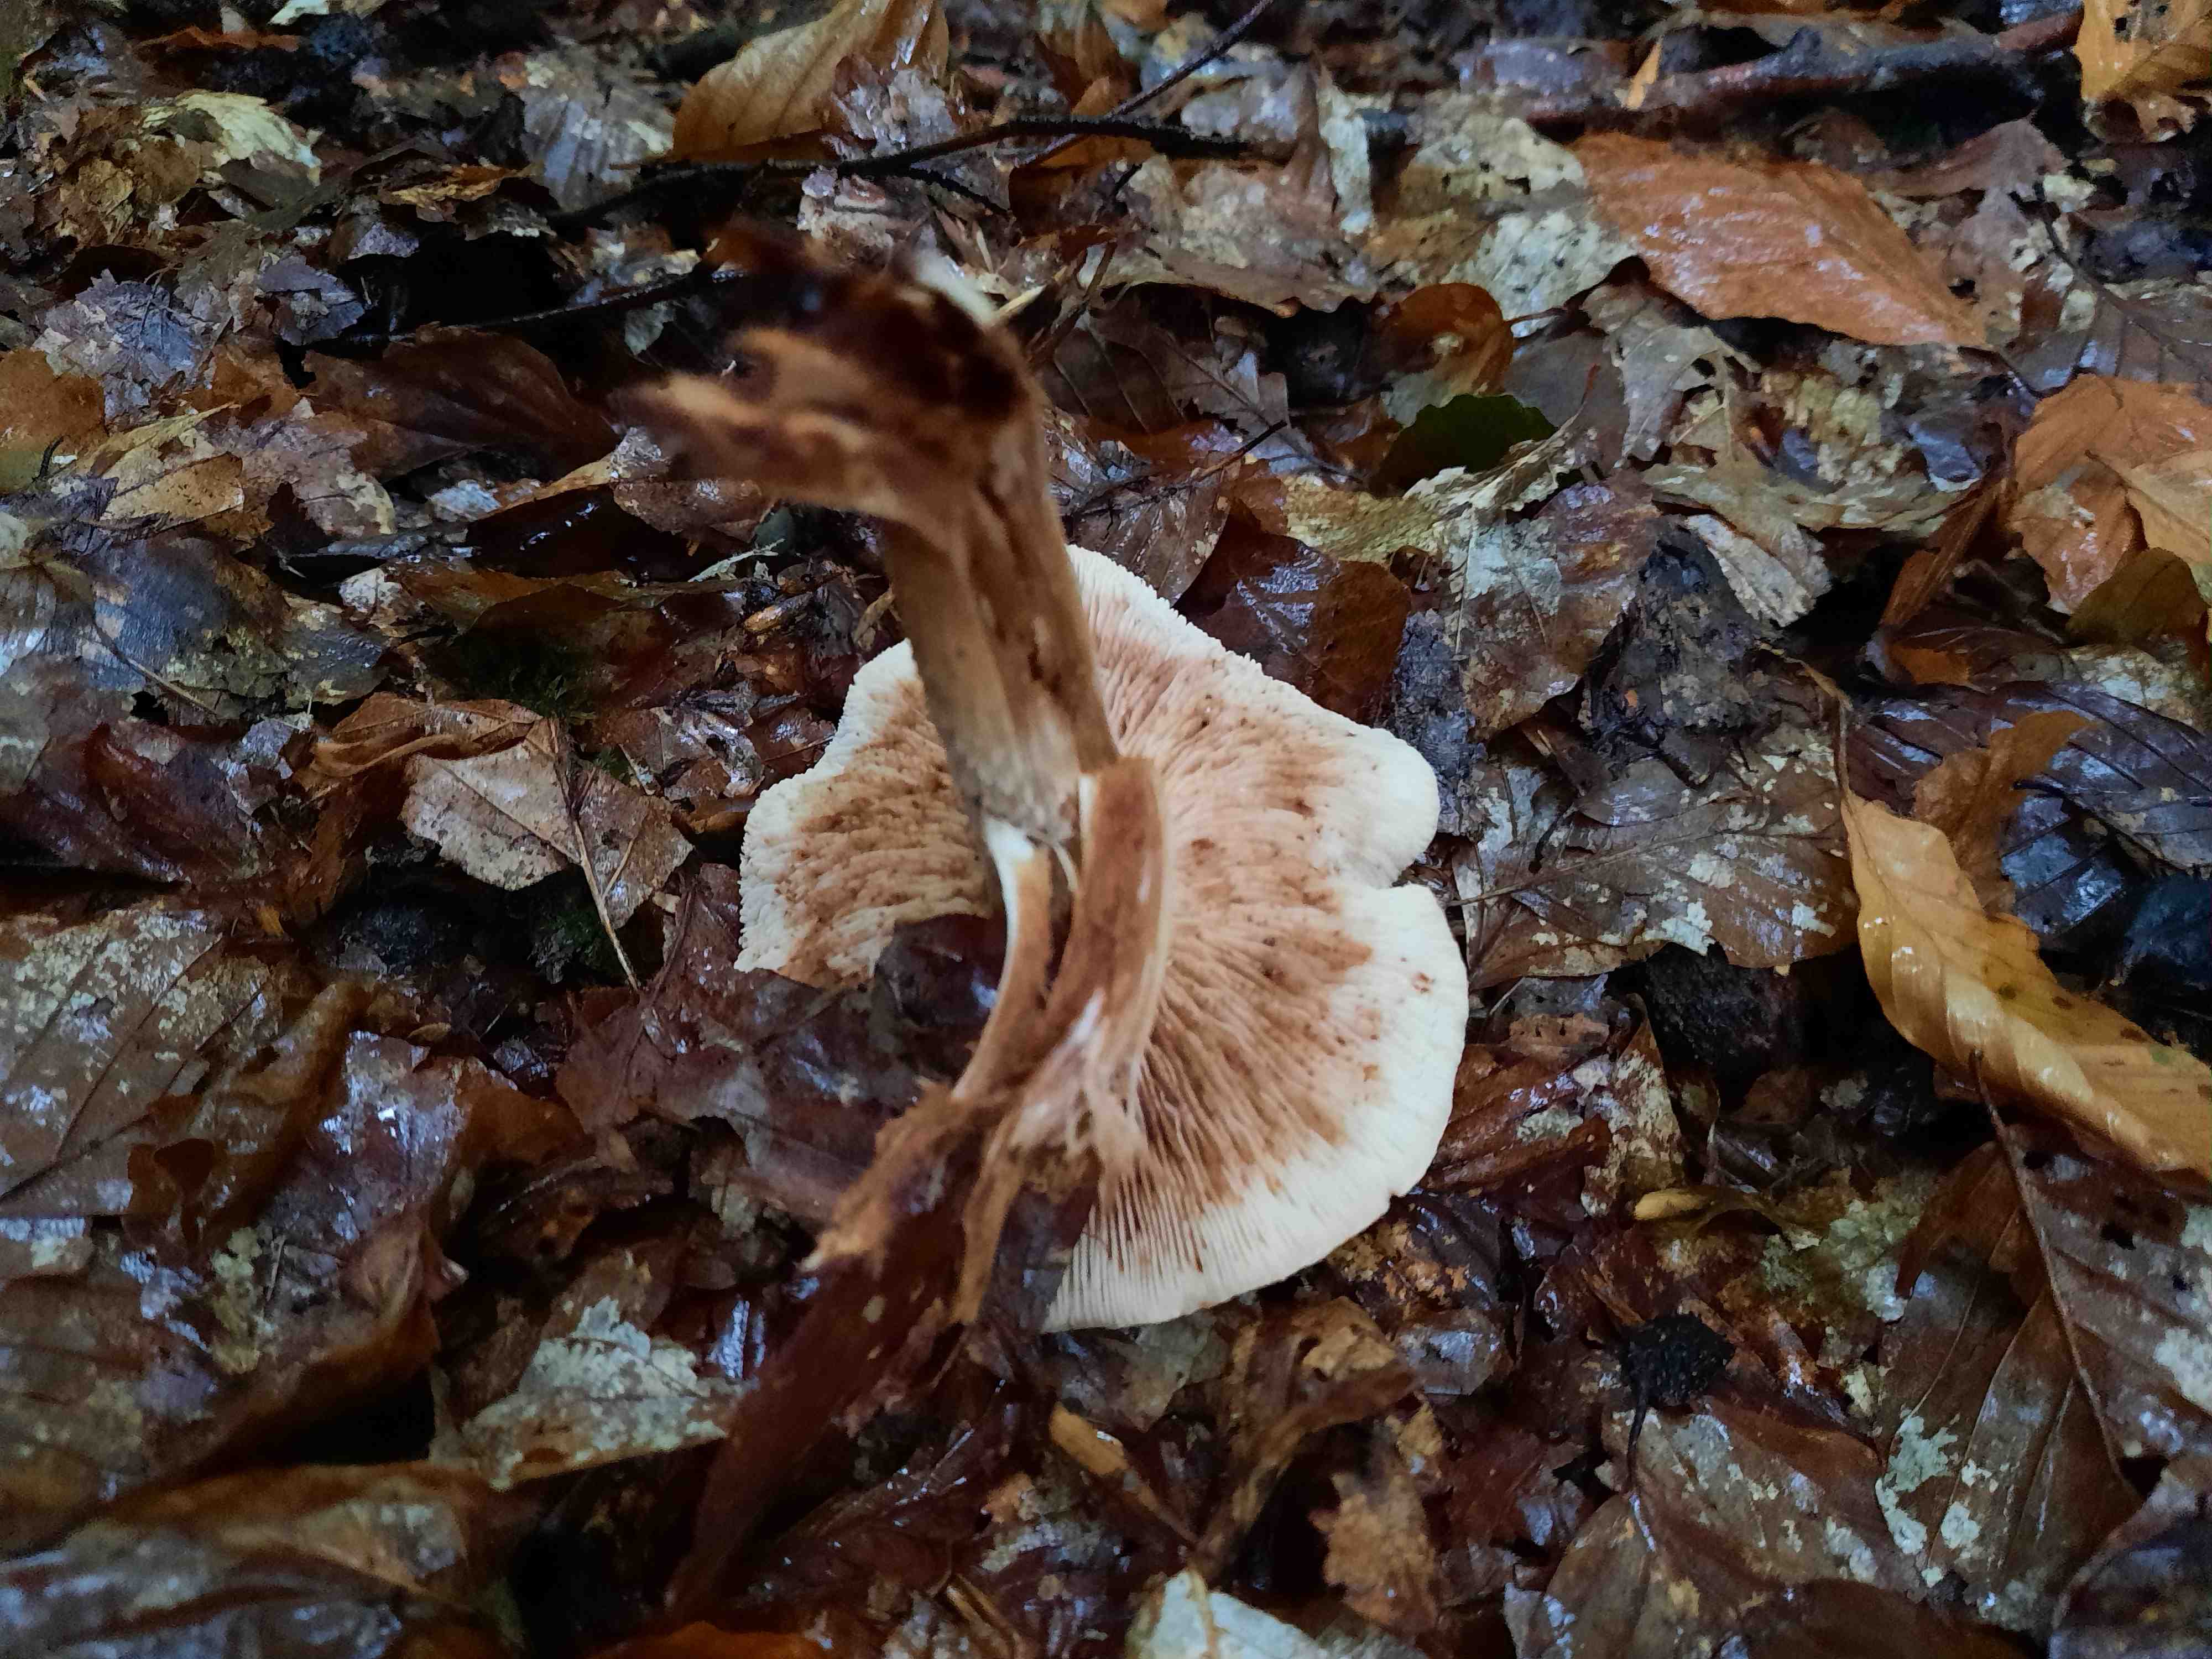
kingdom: Fungi
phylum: Basidiomycota
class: Agaricomycetes
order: Agaricales
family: Tricholomataceae
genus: Tricholoma
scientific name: Tricholoma fulvum
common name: birke-ridderhat
